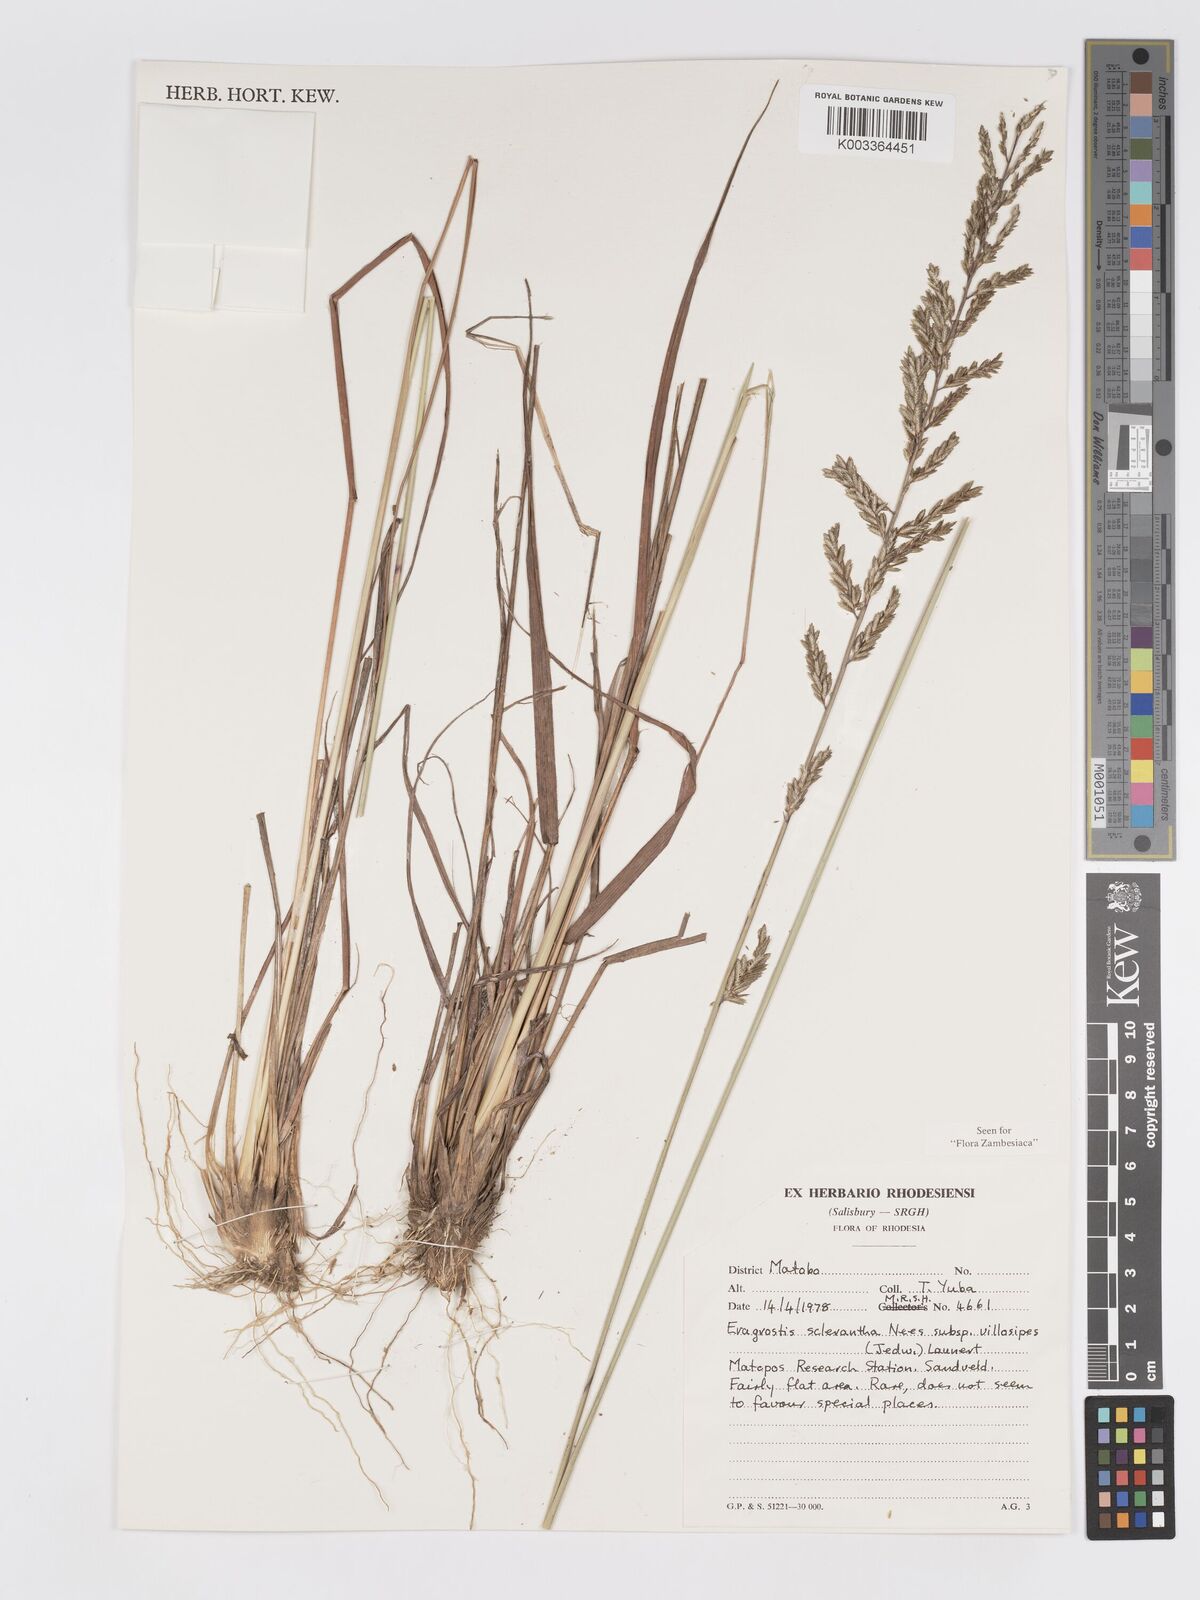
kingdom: Plantae
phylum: Tracheophyta
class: Liliopsida
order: Poales
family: Poaceae
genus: Eragrostis
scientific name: Eragrostis sclerantha
